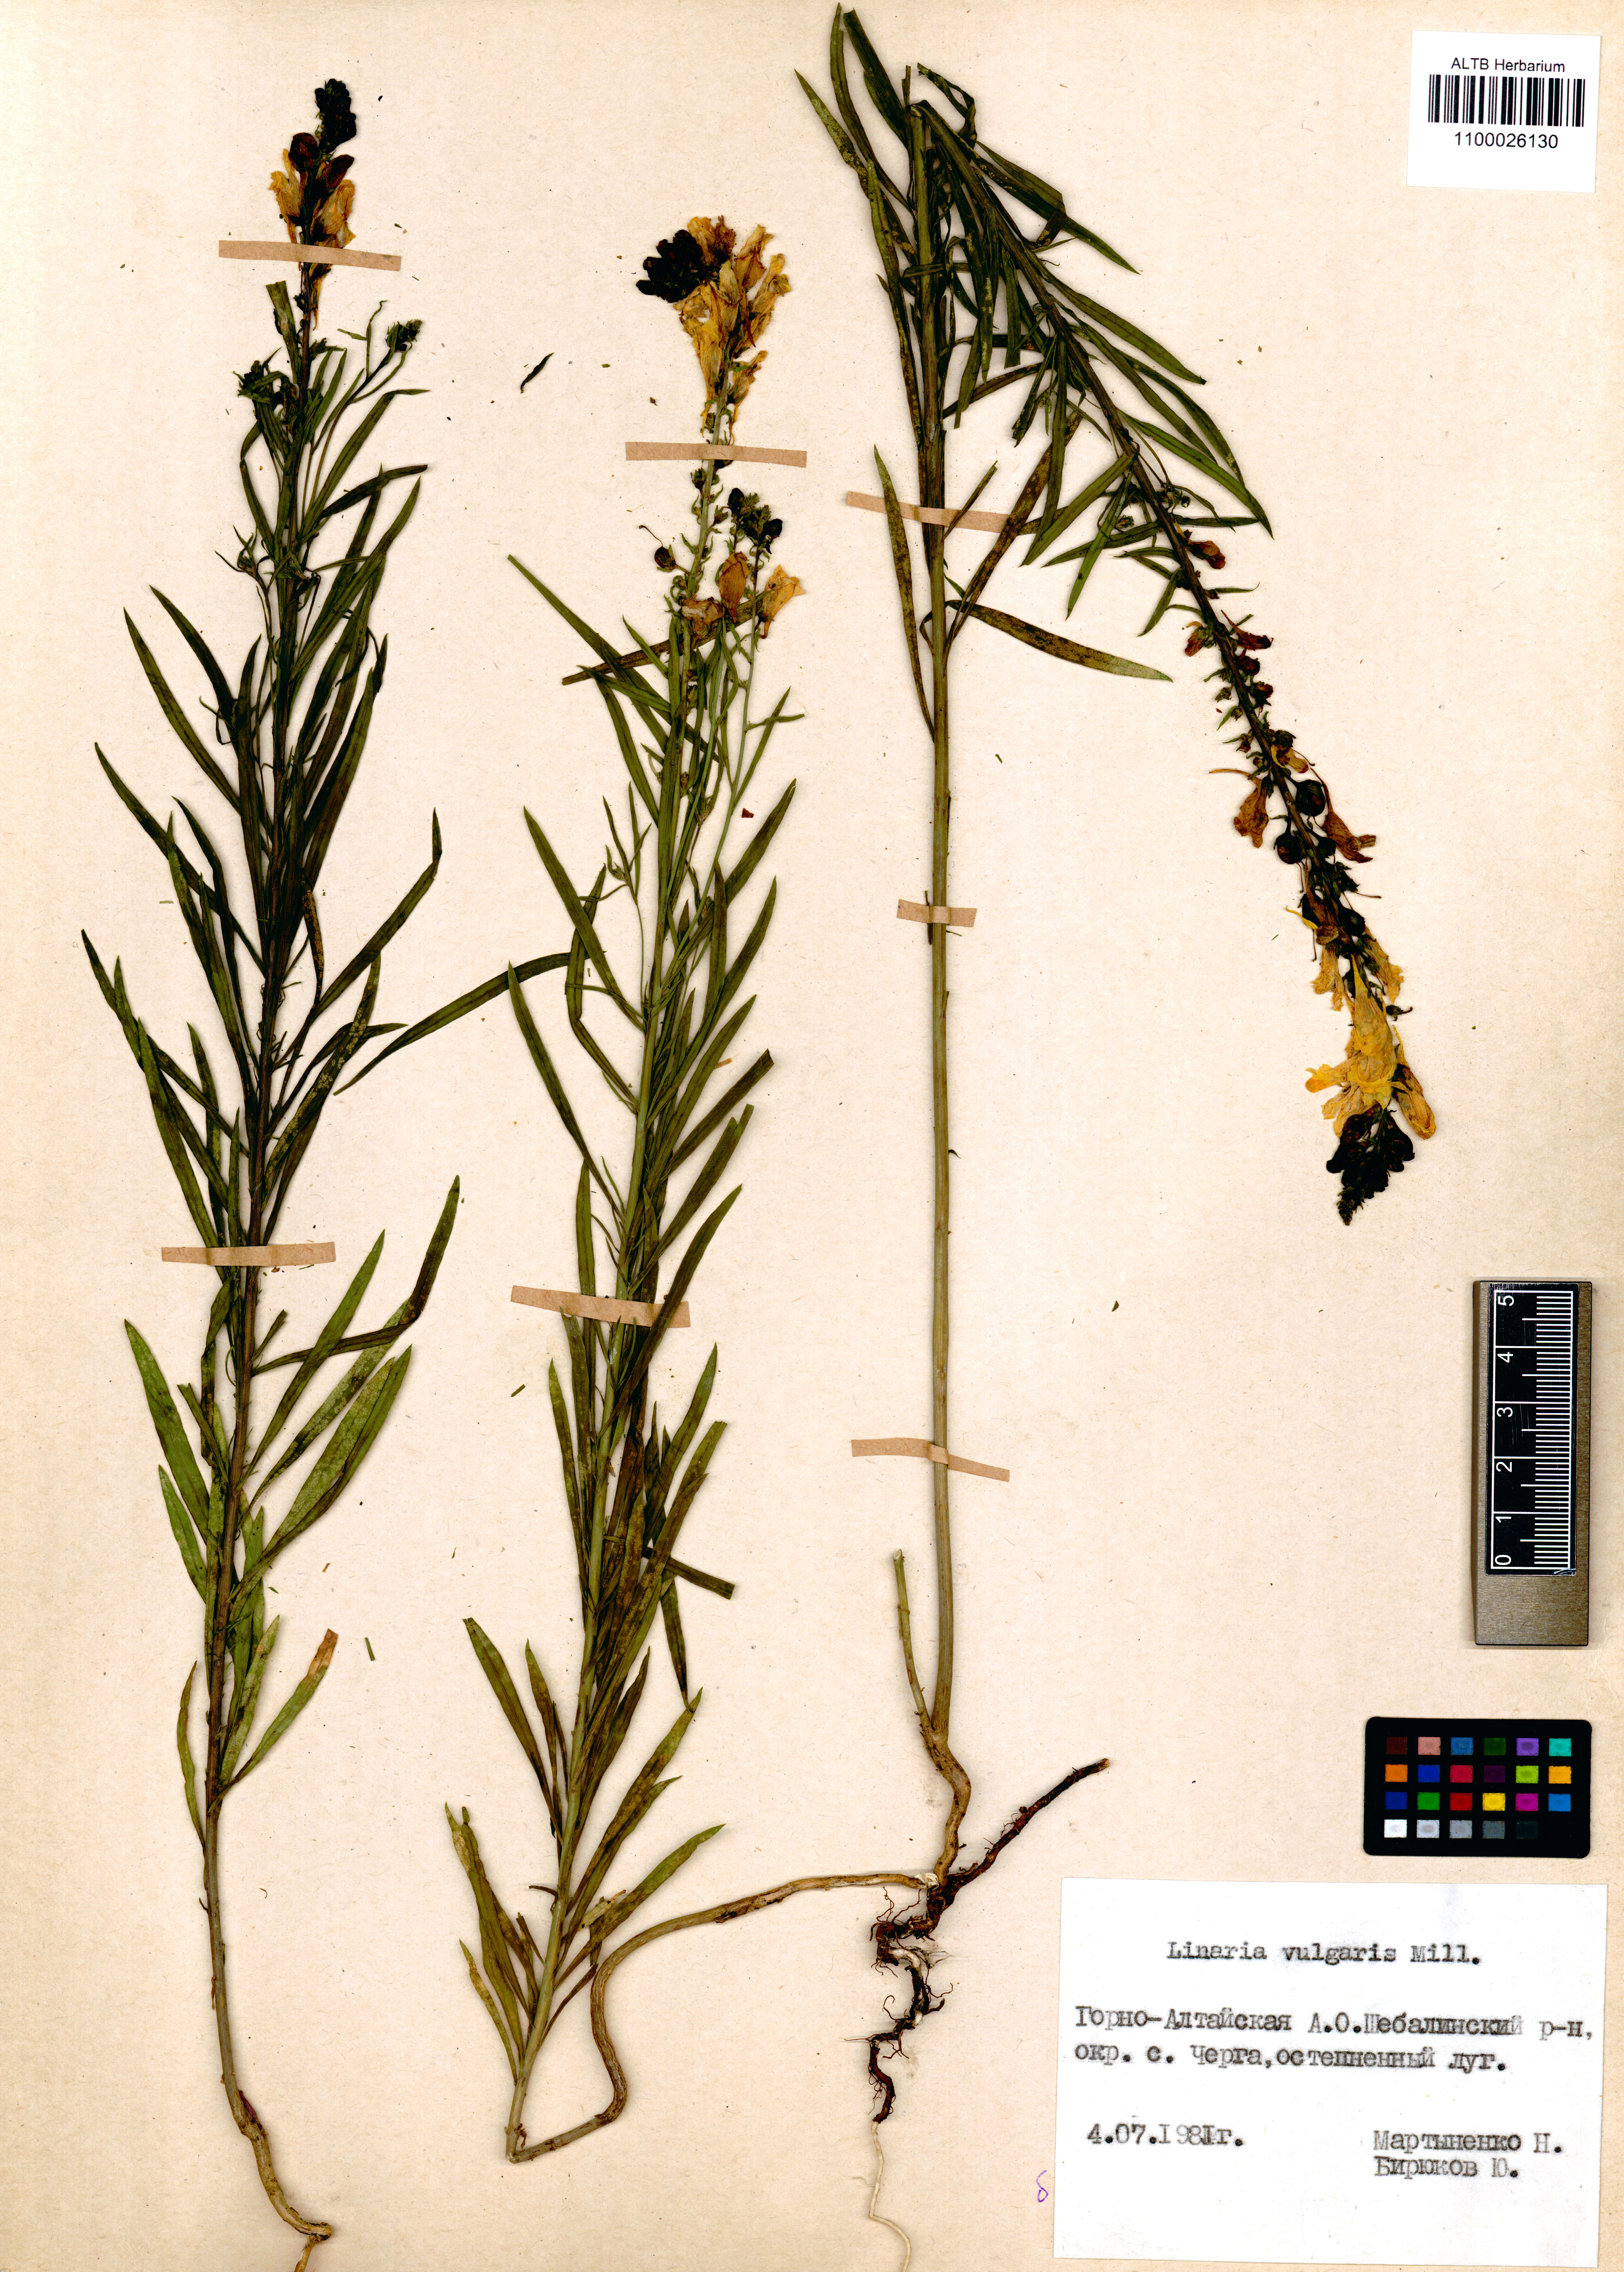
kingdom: Plantae
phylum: Tracheophyta
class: Magnoliopsida
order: Lamiales
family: Plantaginaceae
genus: Linaria
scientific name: Linaria vulgaris
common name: Butter and eggs
